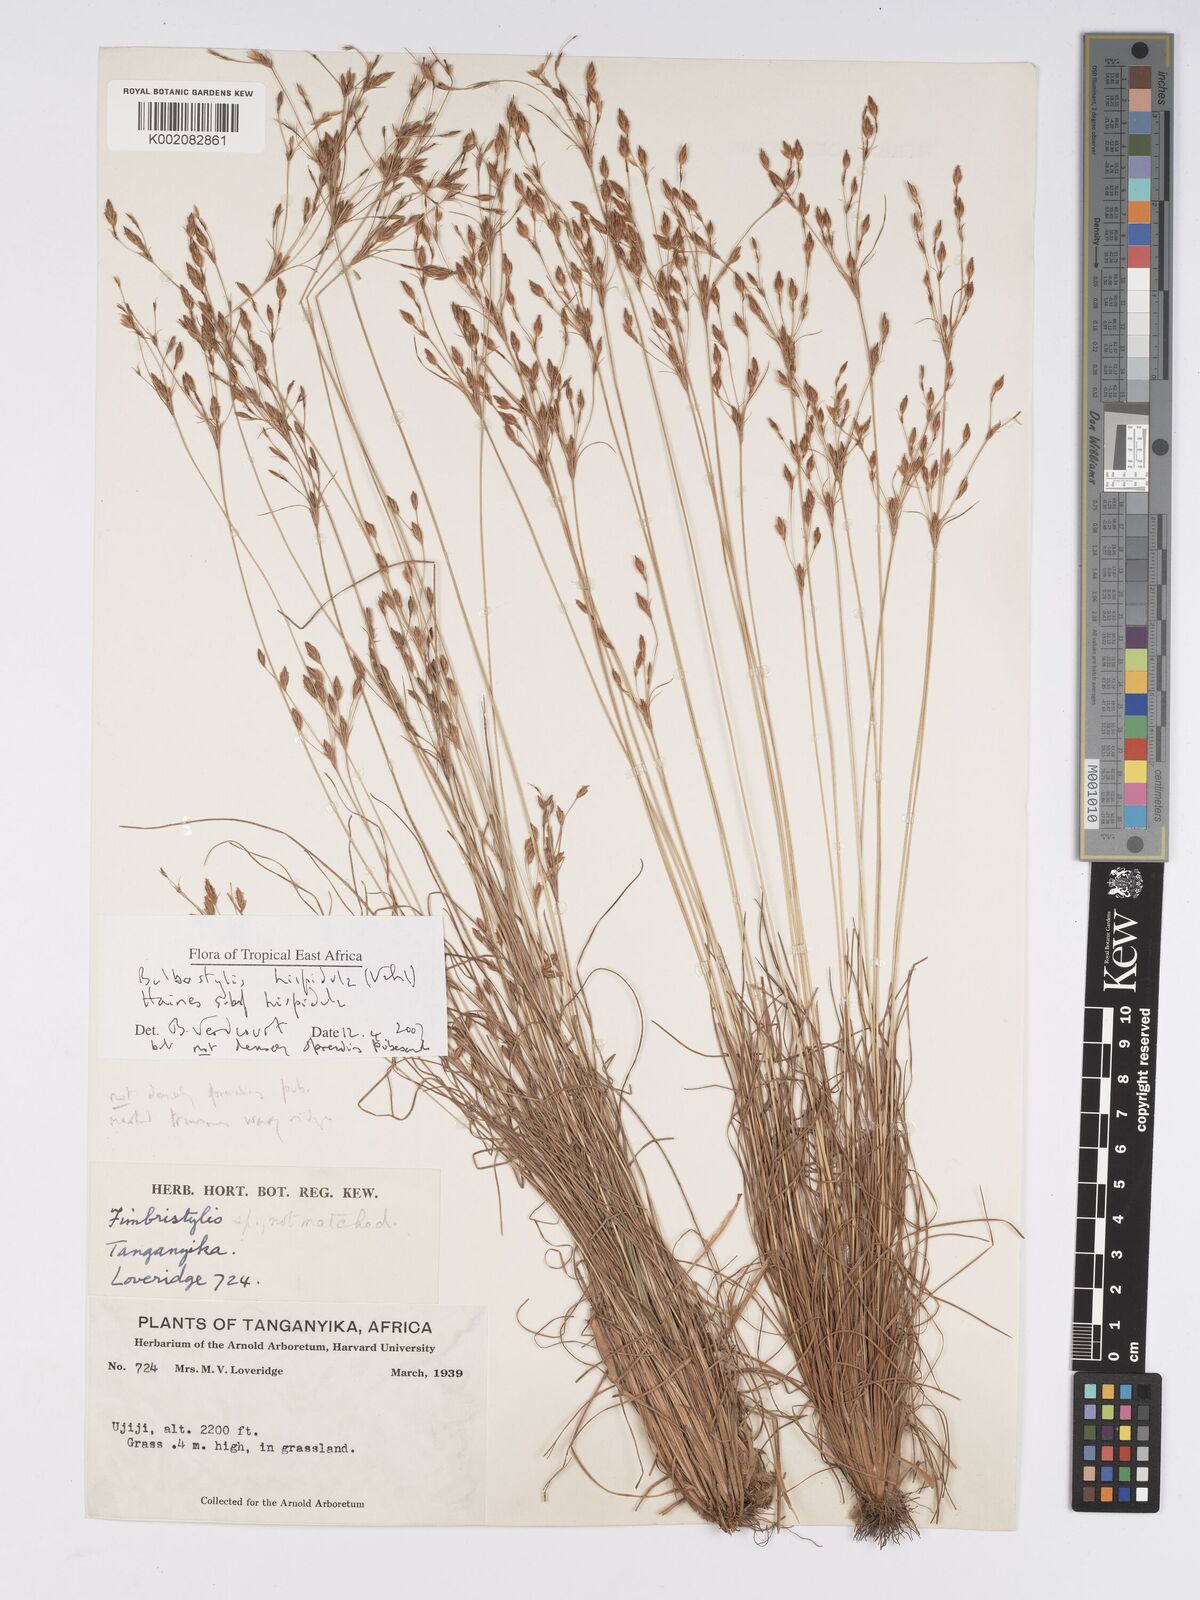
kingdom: Plantae
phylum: Tracheophyta
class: Liliopsida
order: Poales
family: Cyperaceae
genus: Bulbostylis
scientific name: Bulbostylis hispidula
